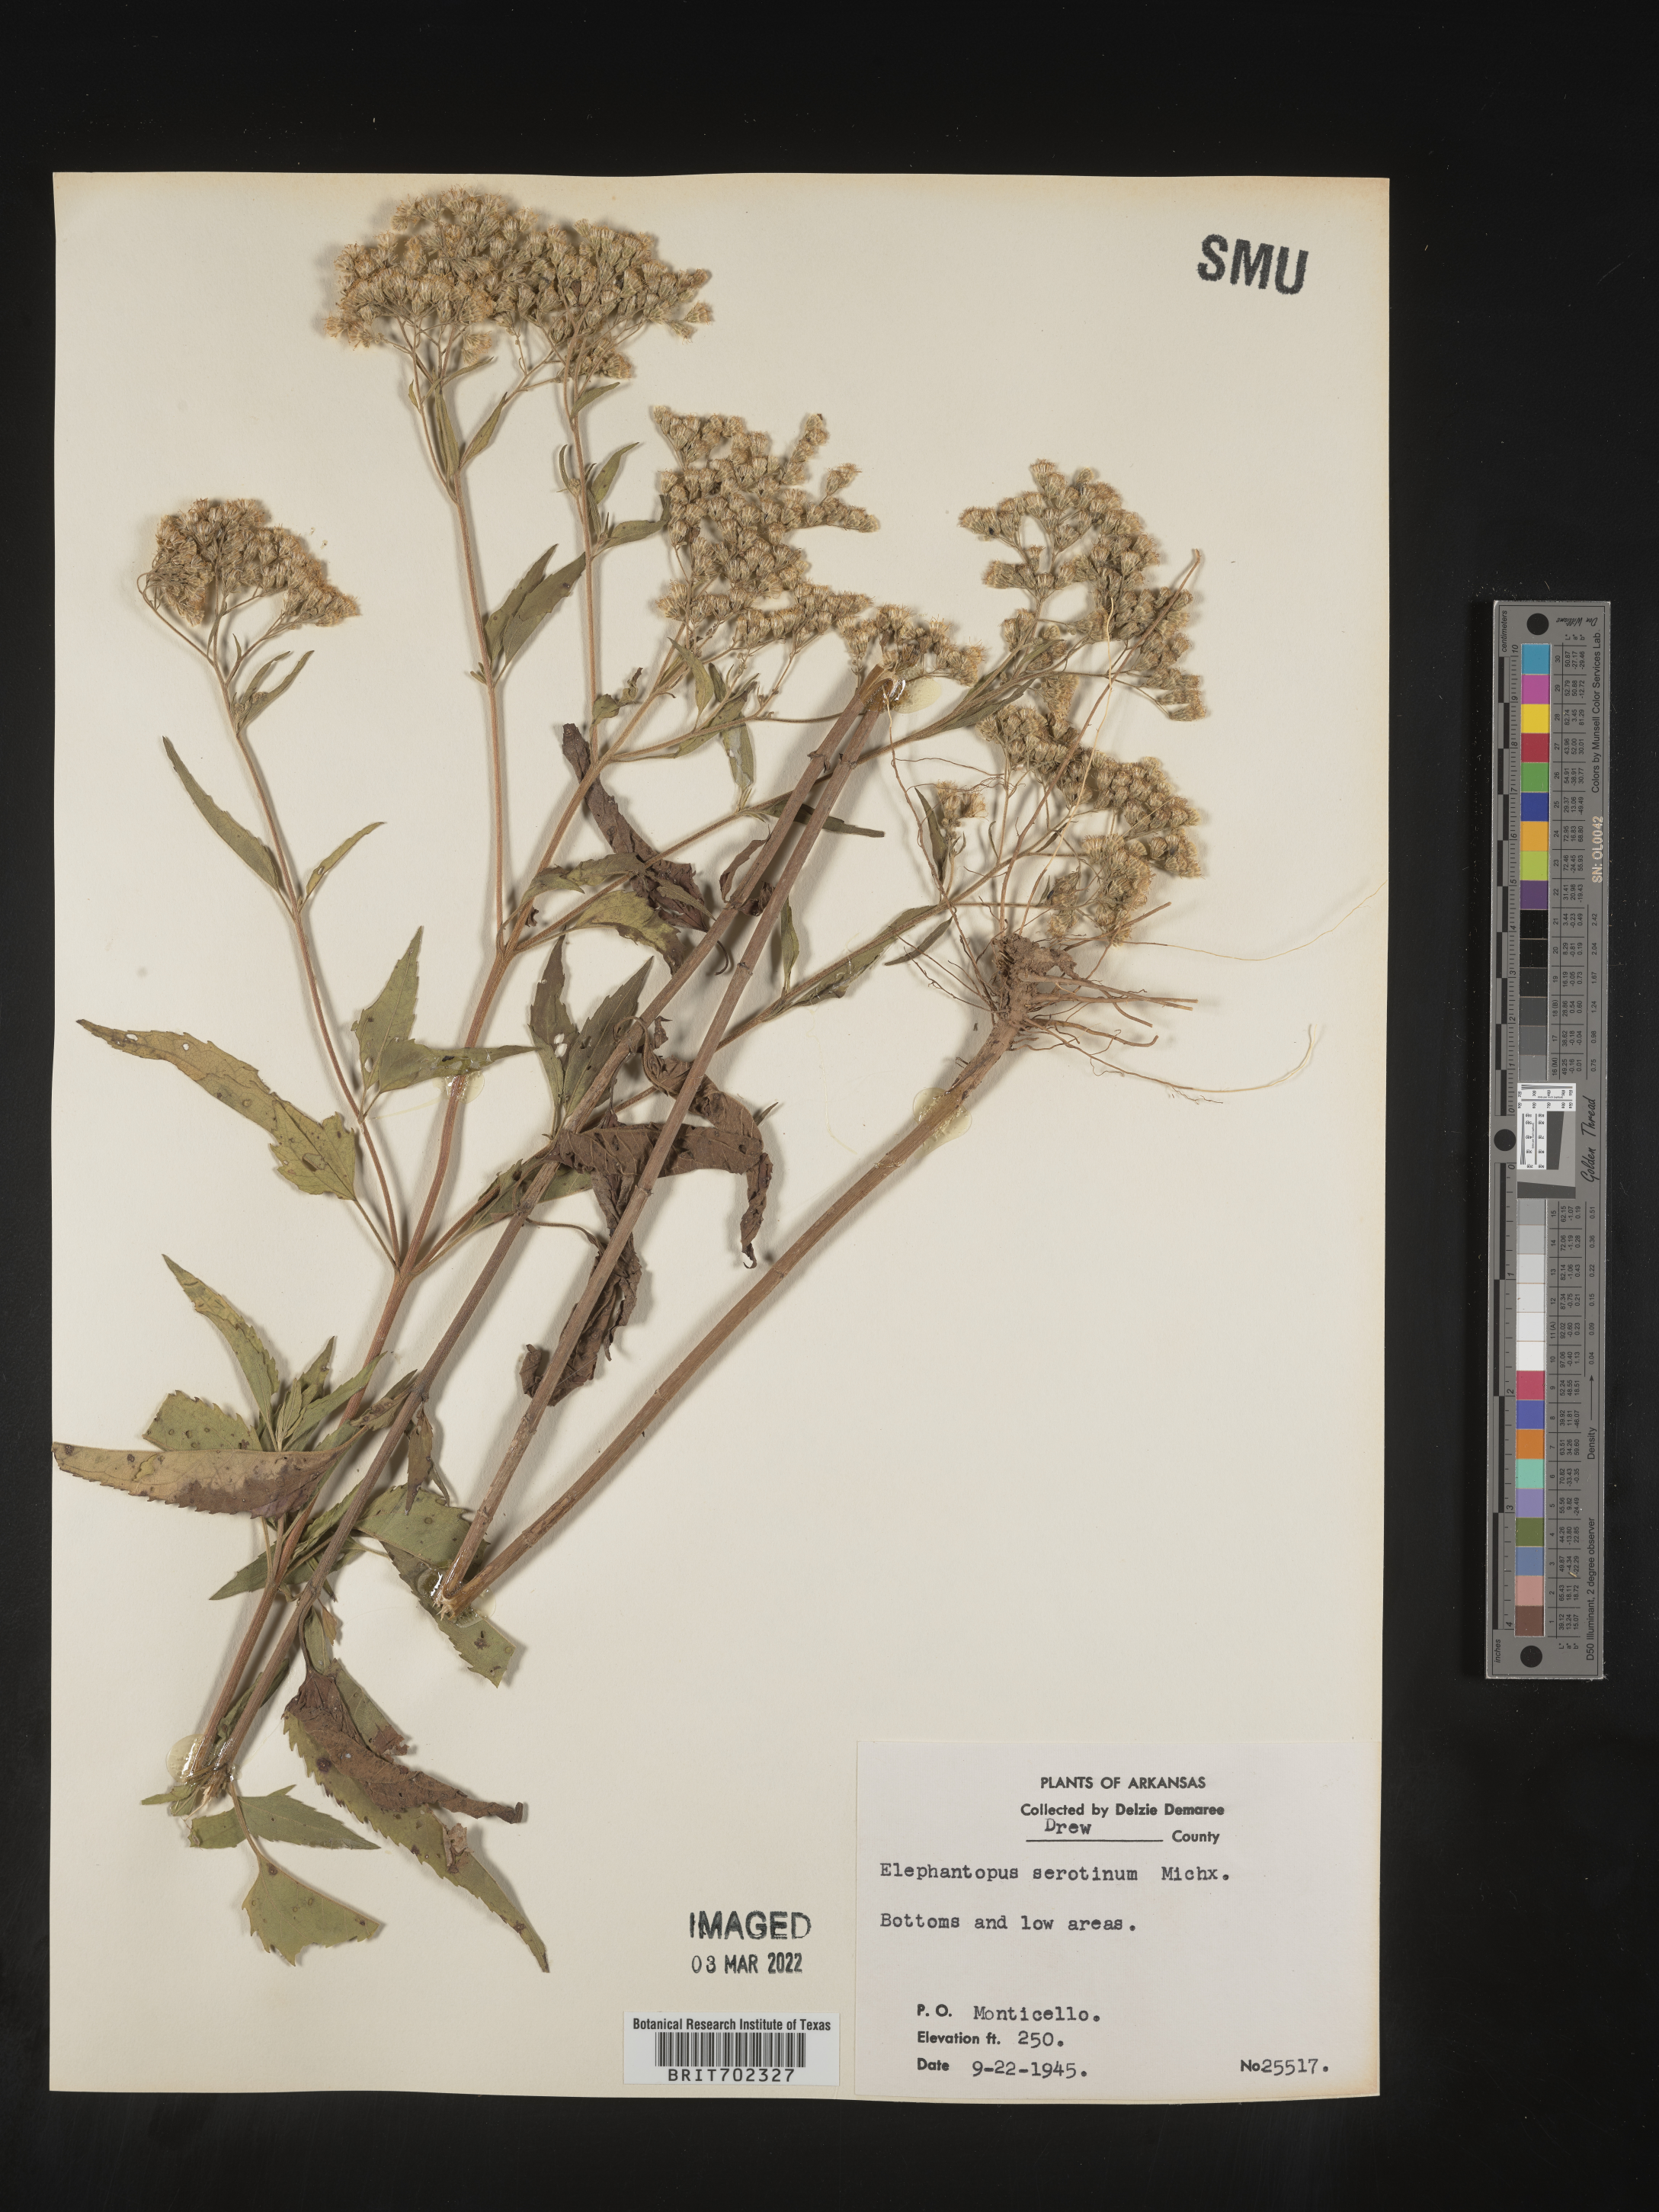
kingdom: Plantae
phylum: Tracheophyta
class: Magnoliopsida
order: Asterales
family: Asteraceae
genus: Eupatorium
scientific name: Eupatorium serotinum
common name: Late boneset
